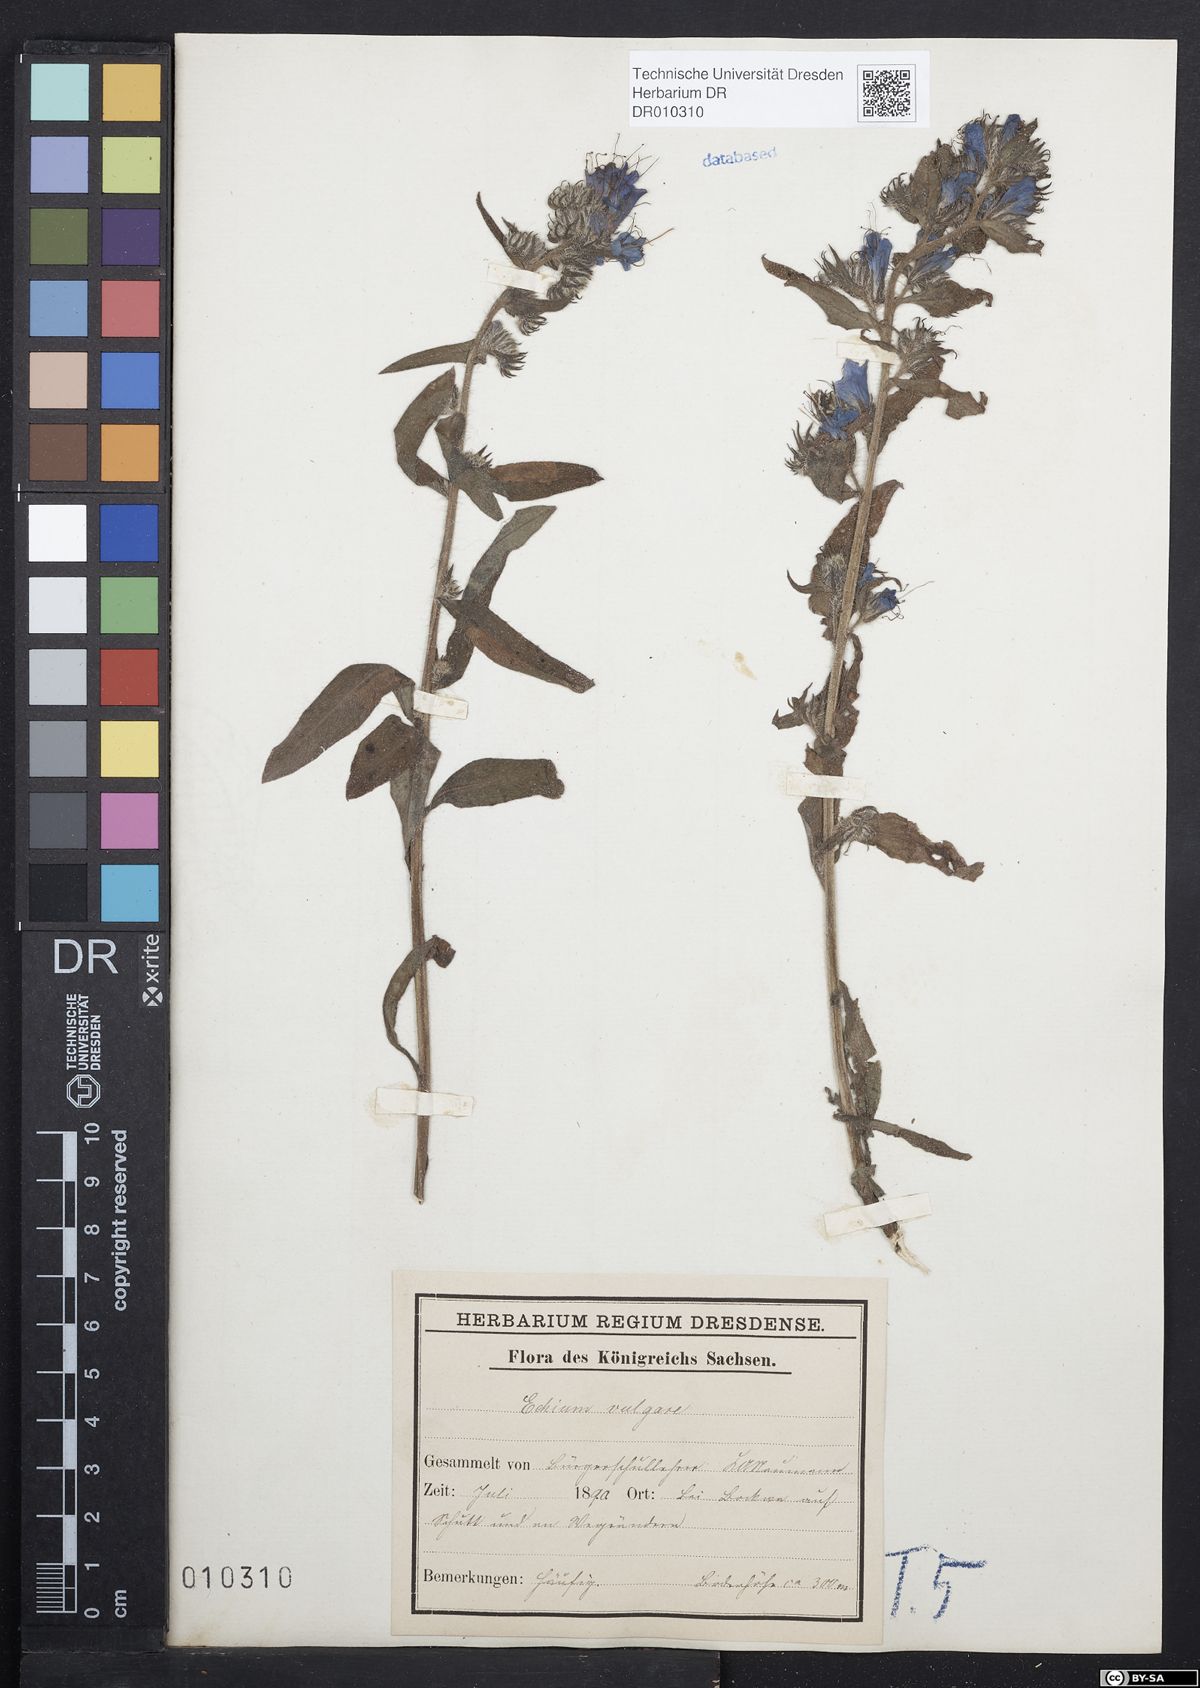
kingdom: Plantae
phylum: Tracheophyta
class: Magnoliopsida
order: Boraginales
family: Boraginaceae
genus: Echium
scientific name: Echium vulgare
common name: Common viper's bugloss
